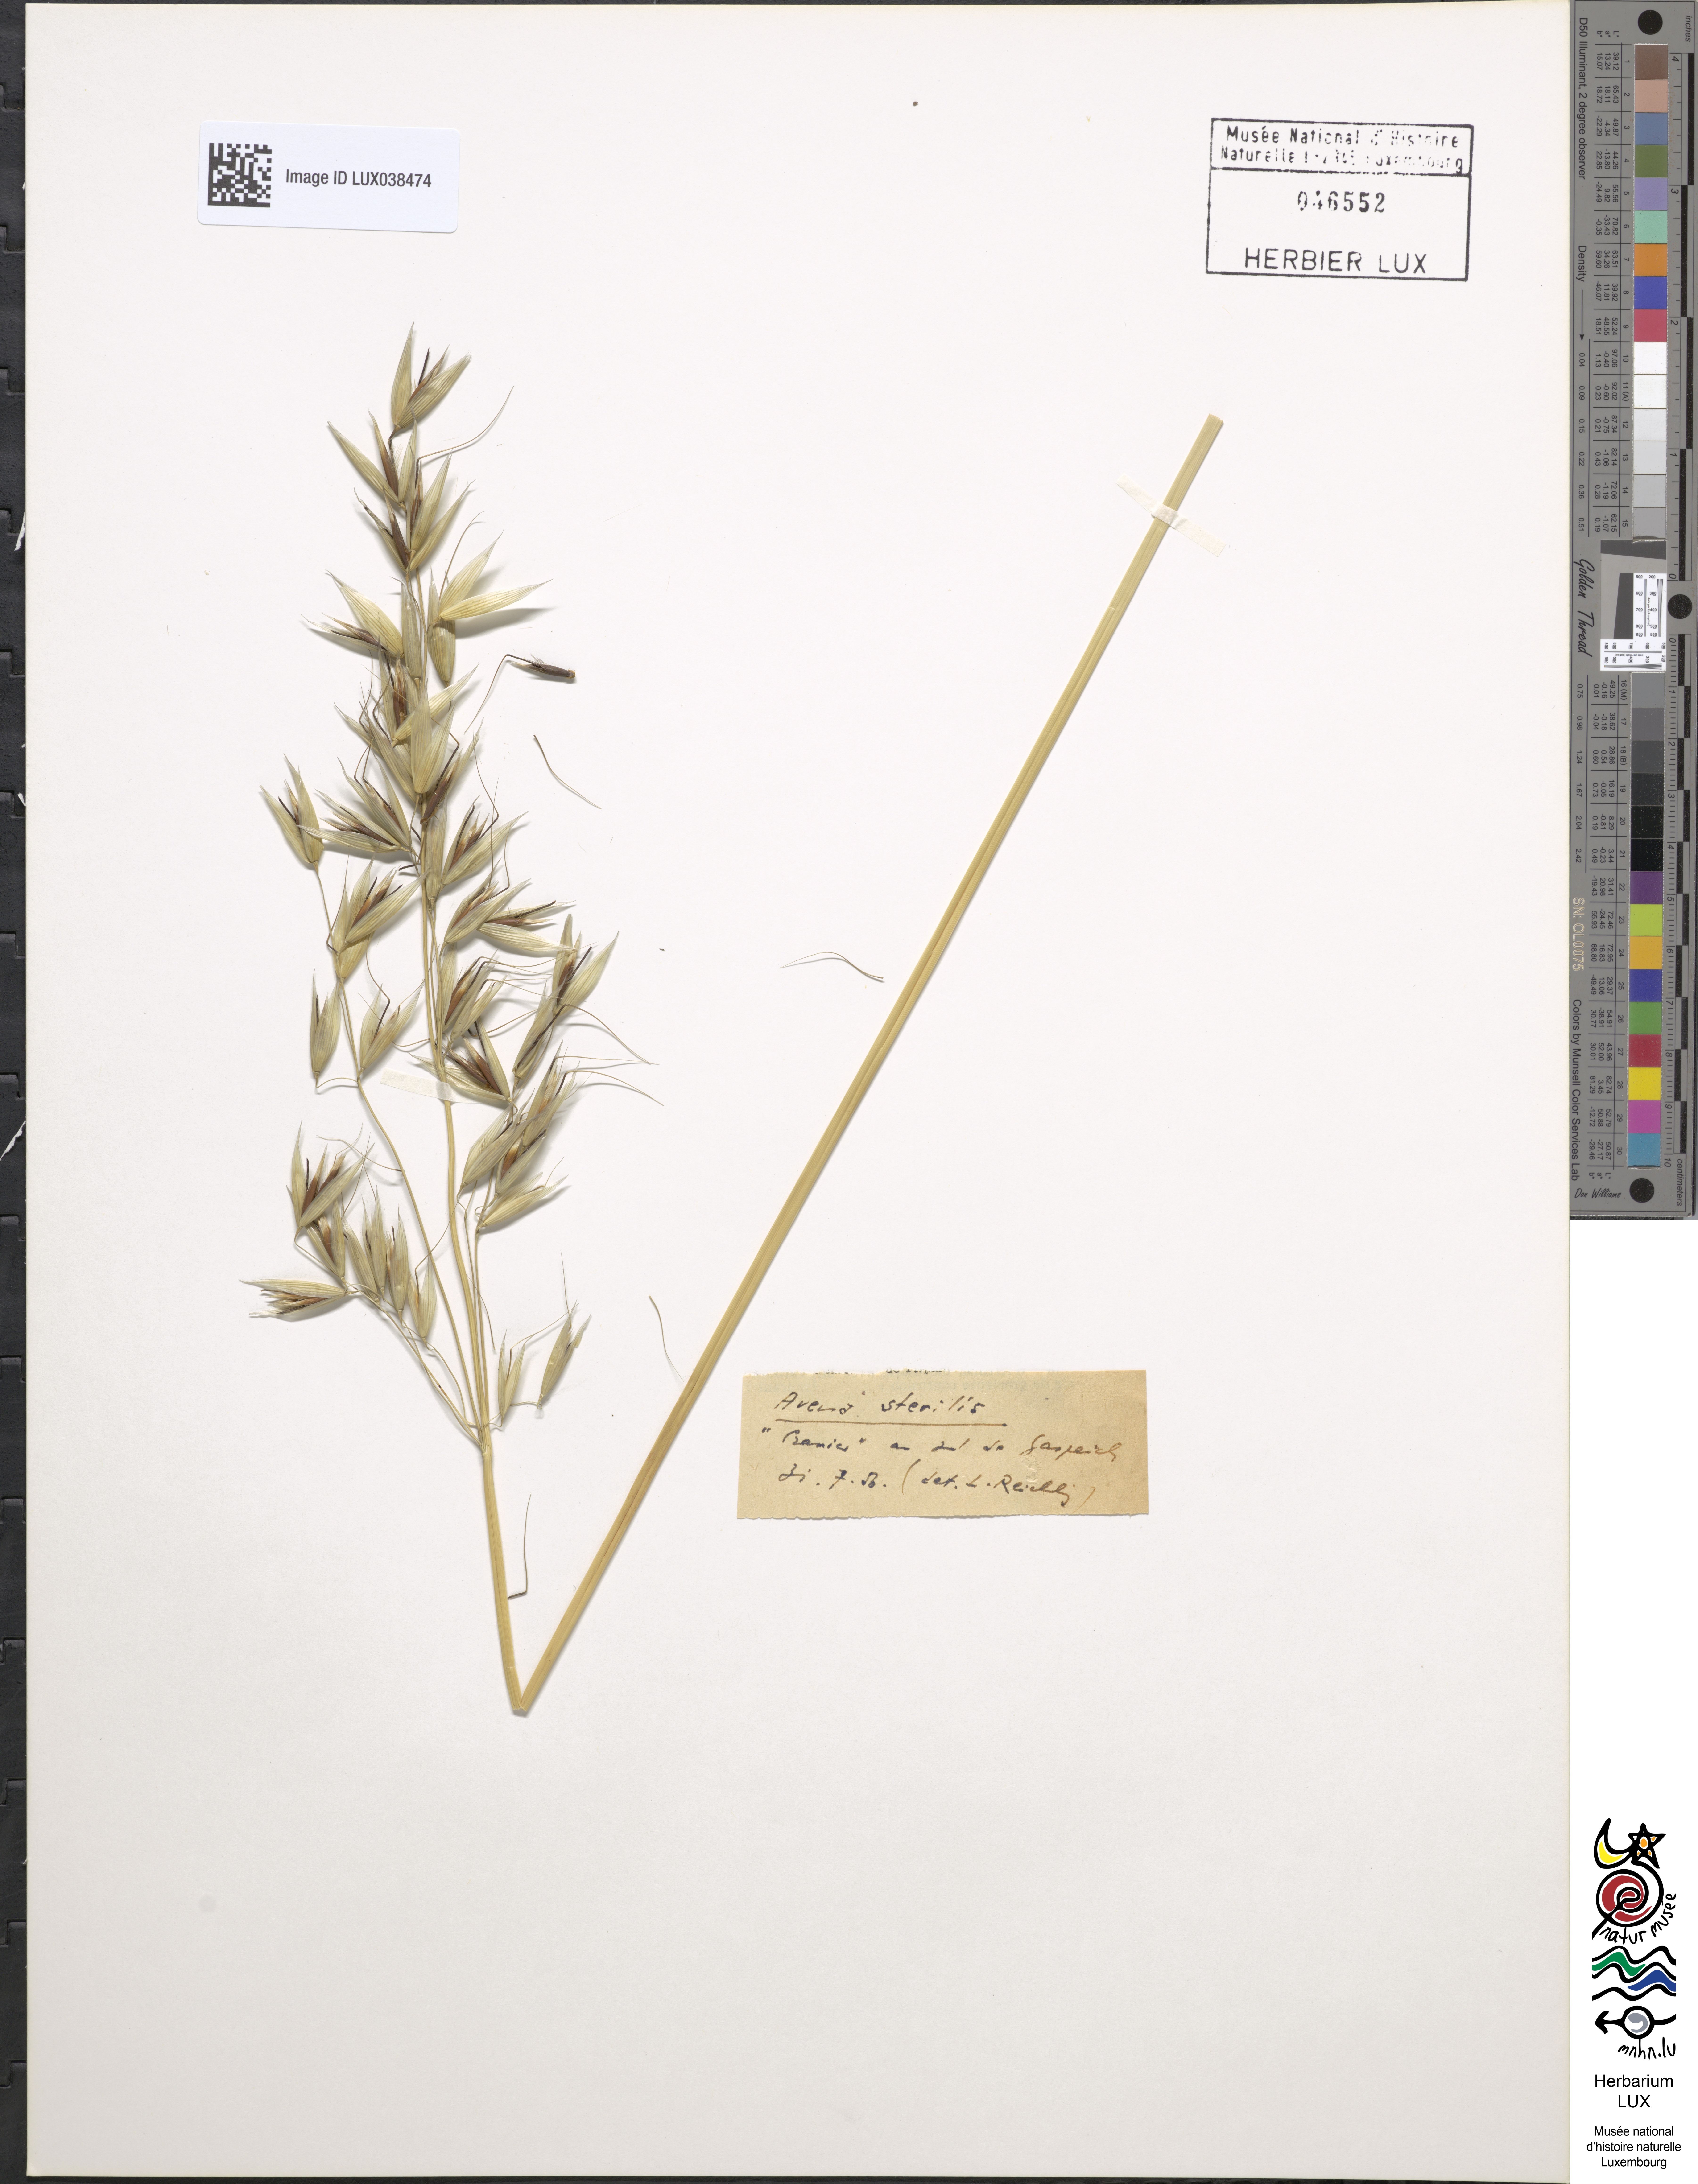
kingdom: Plantae
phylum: Tracheophyta
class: Liliopsida
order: Poales
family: Poaceae
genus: Avena
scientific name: Avena sterilis
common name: Animated oat
